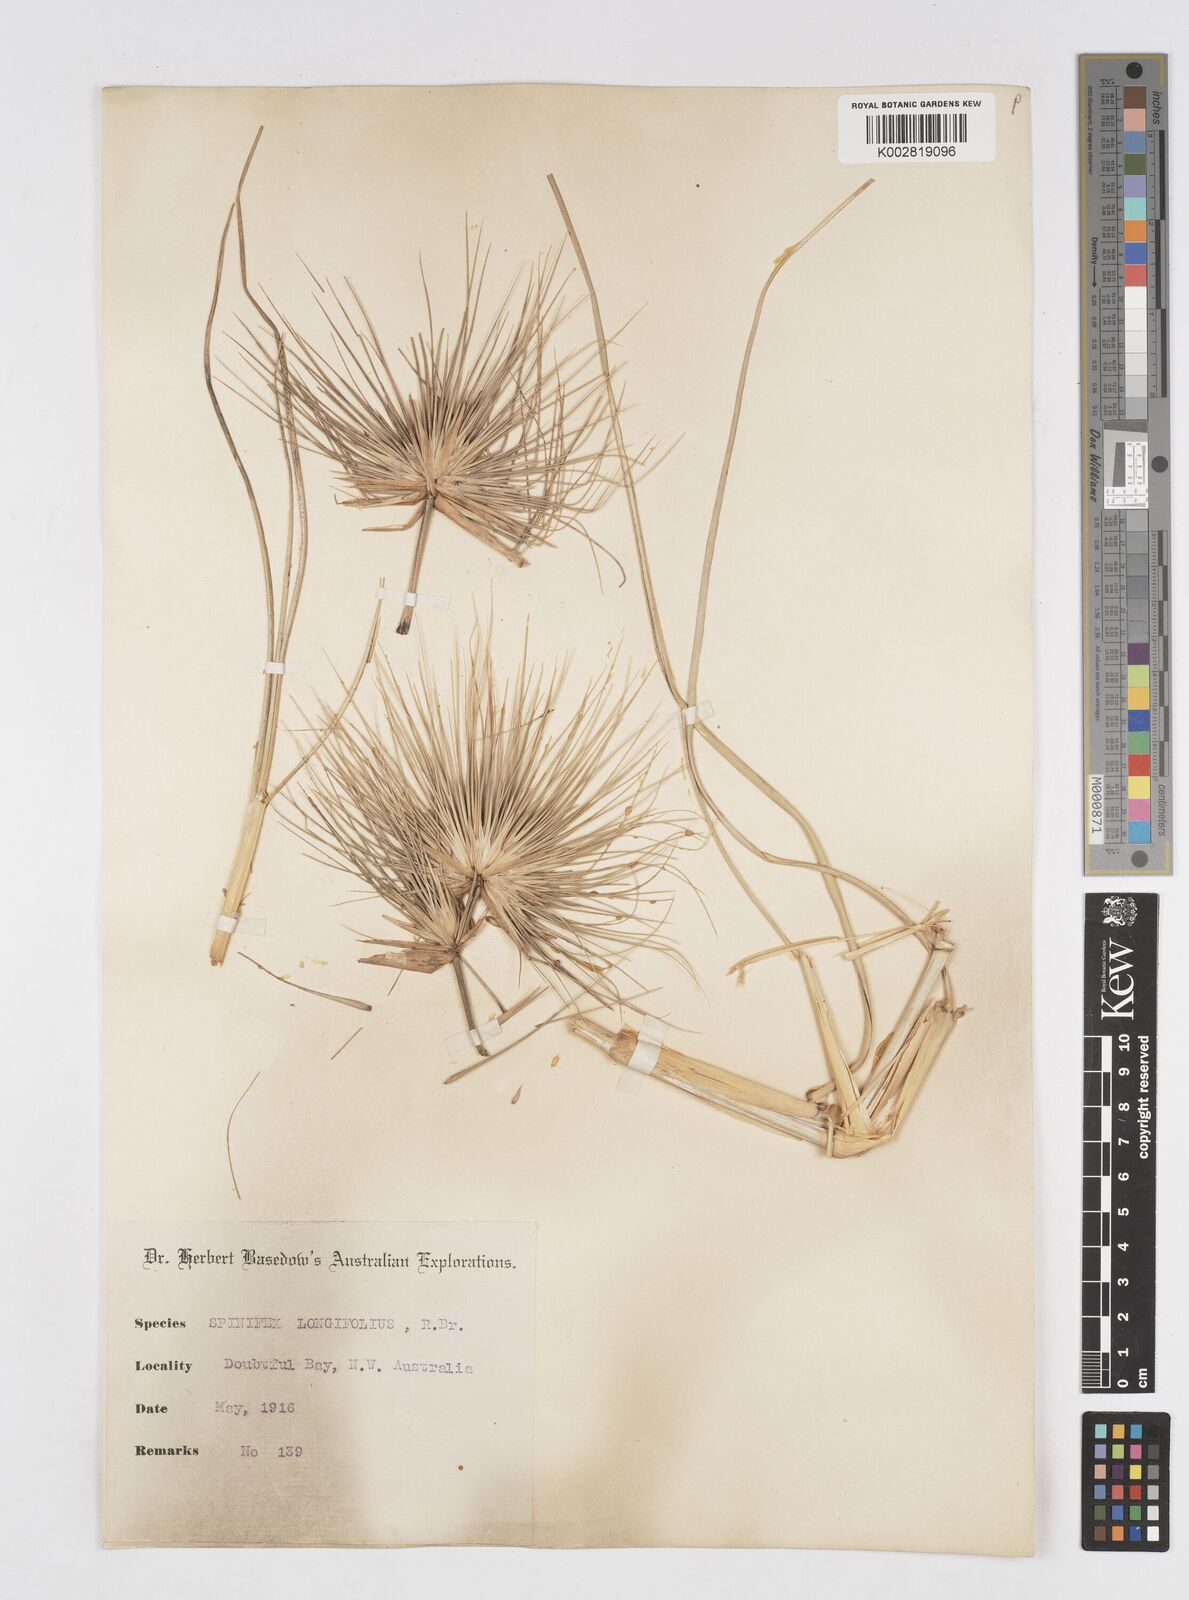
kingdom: Plantae
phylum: Tracheophyta
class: Liliopsida
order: Poales
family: Poaceae
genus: Spinifex
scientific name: Spinifex longifolius
